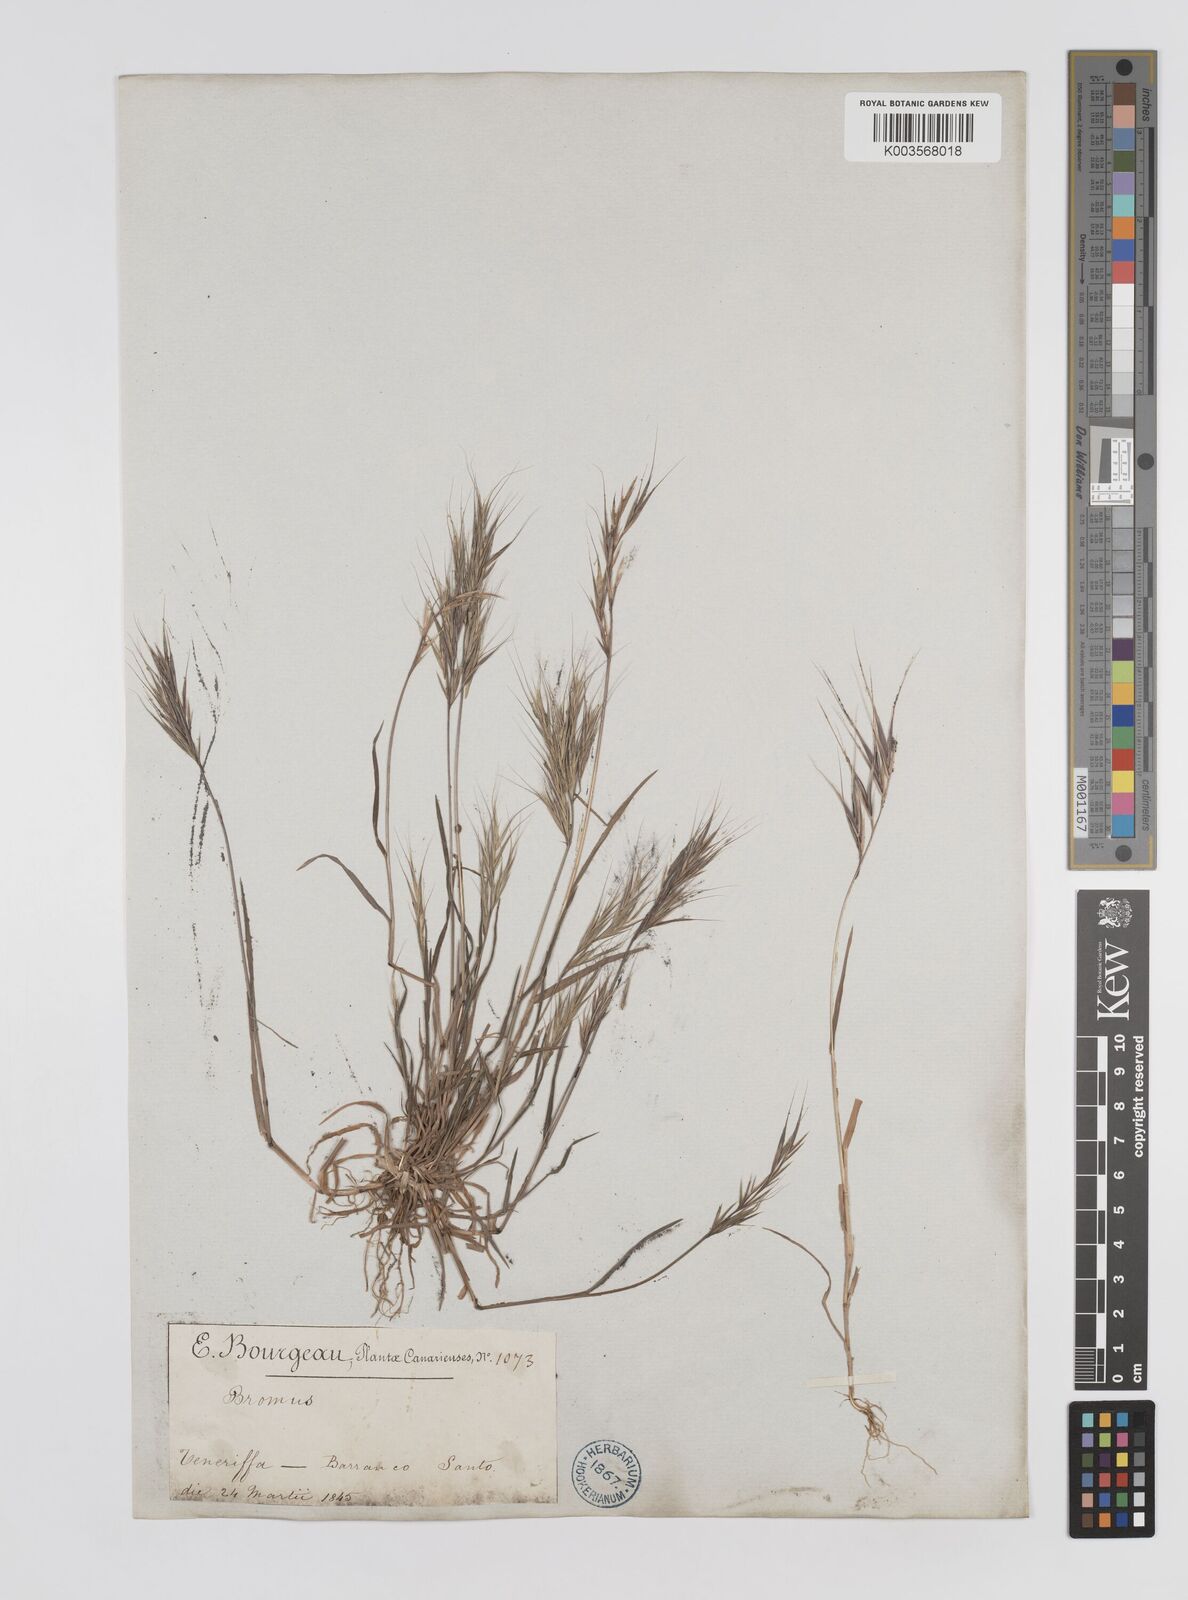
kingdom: Plantae
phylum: Tracheophyta
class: Liliopsida
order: Poales
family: Poaceae
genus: Bromus
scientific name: Bromus
